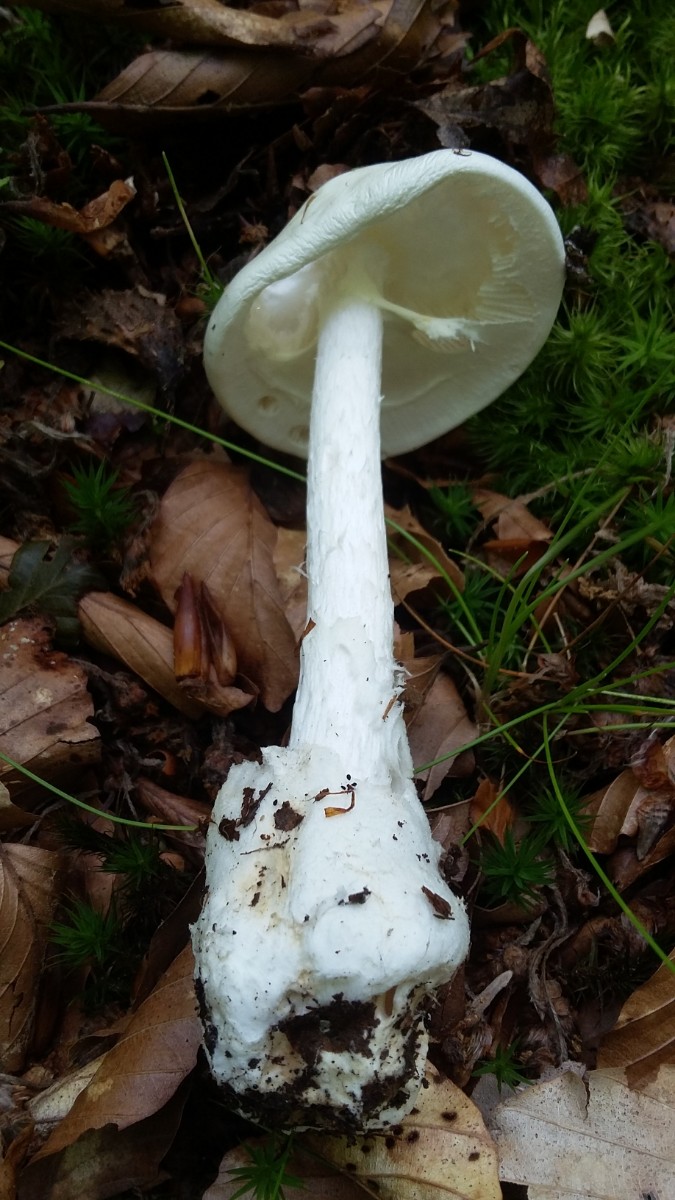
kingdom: Fungi
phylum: Basidiomycota
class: Agaricomycetes
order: Agaricales
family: Amanitaceae
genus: Amanita
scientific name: Amanita virosa
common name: snehvid fluesvamp
